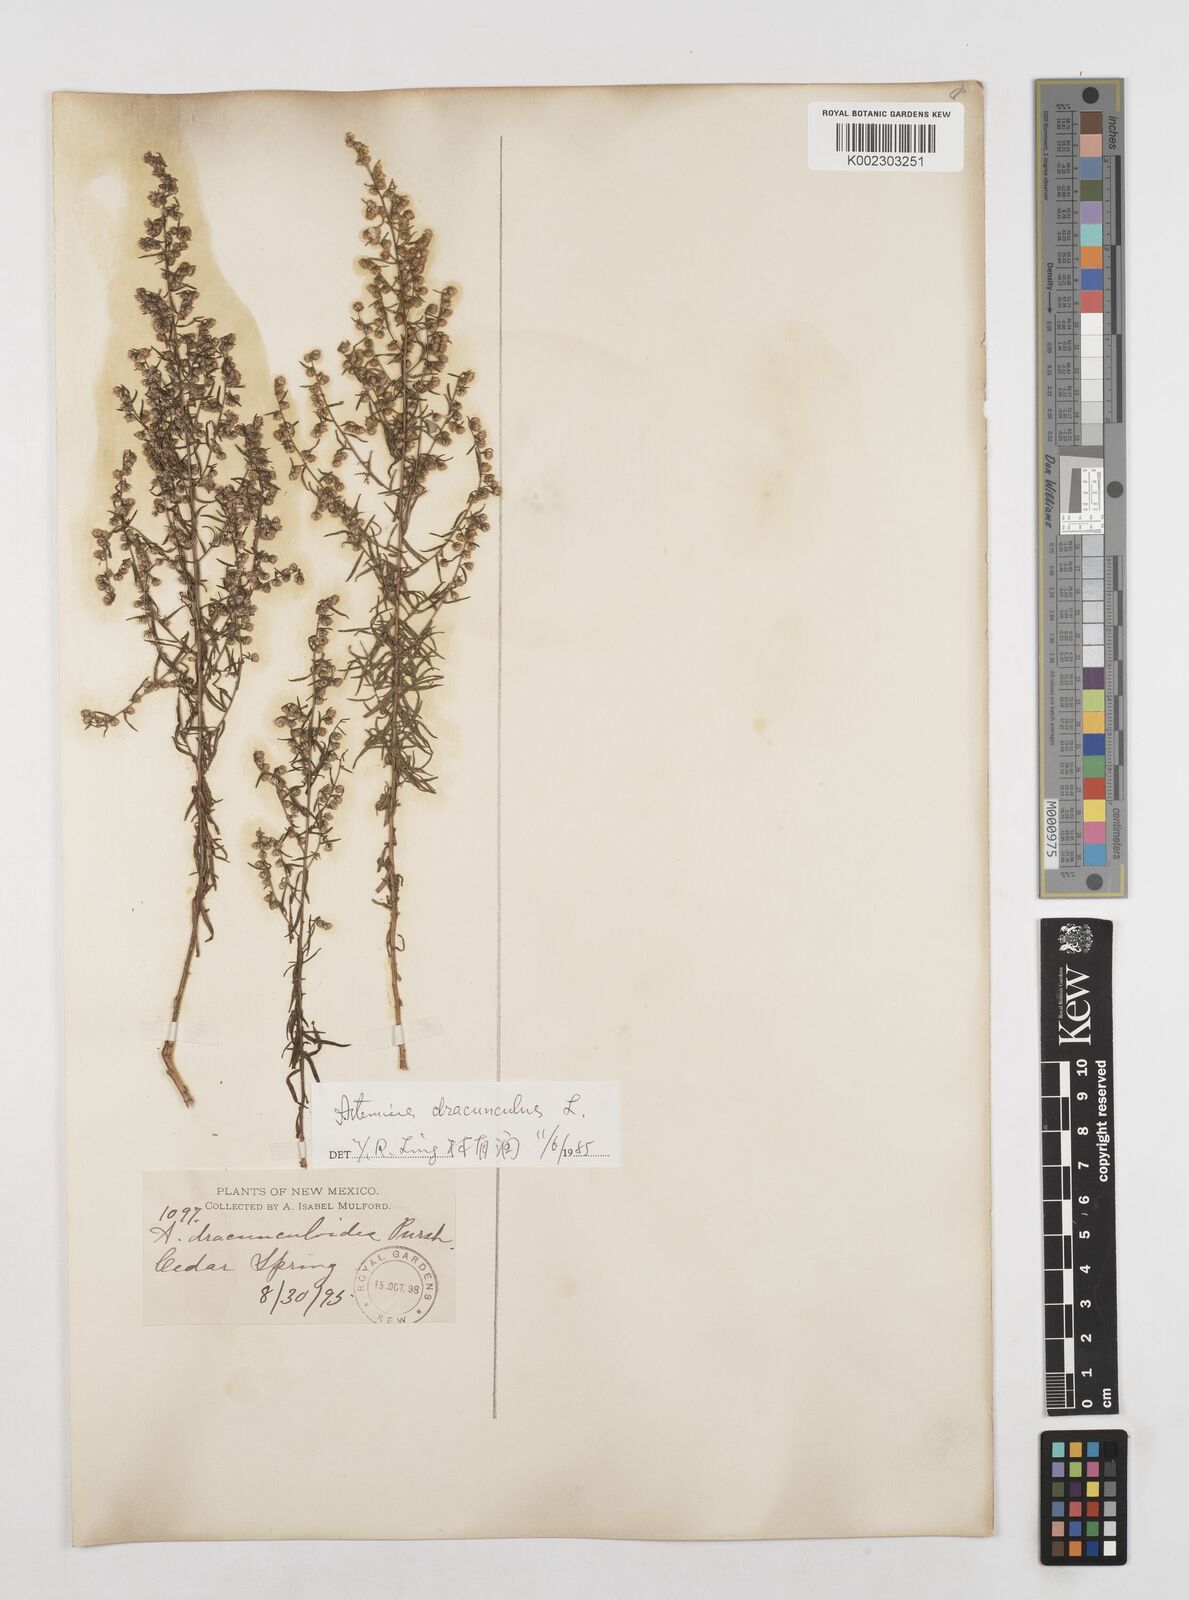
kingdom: Plantae
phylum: Tracheophyta
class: Magnoliopsida
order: Asterales
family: Asteraceae
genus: Artemisia
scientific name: Artemisia dracunculus
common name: Tarragon
